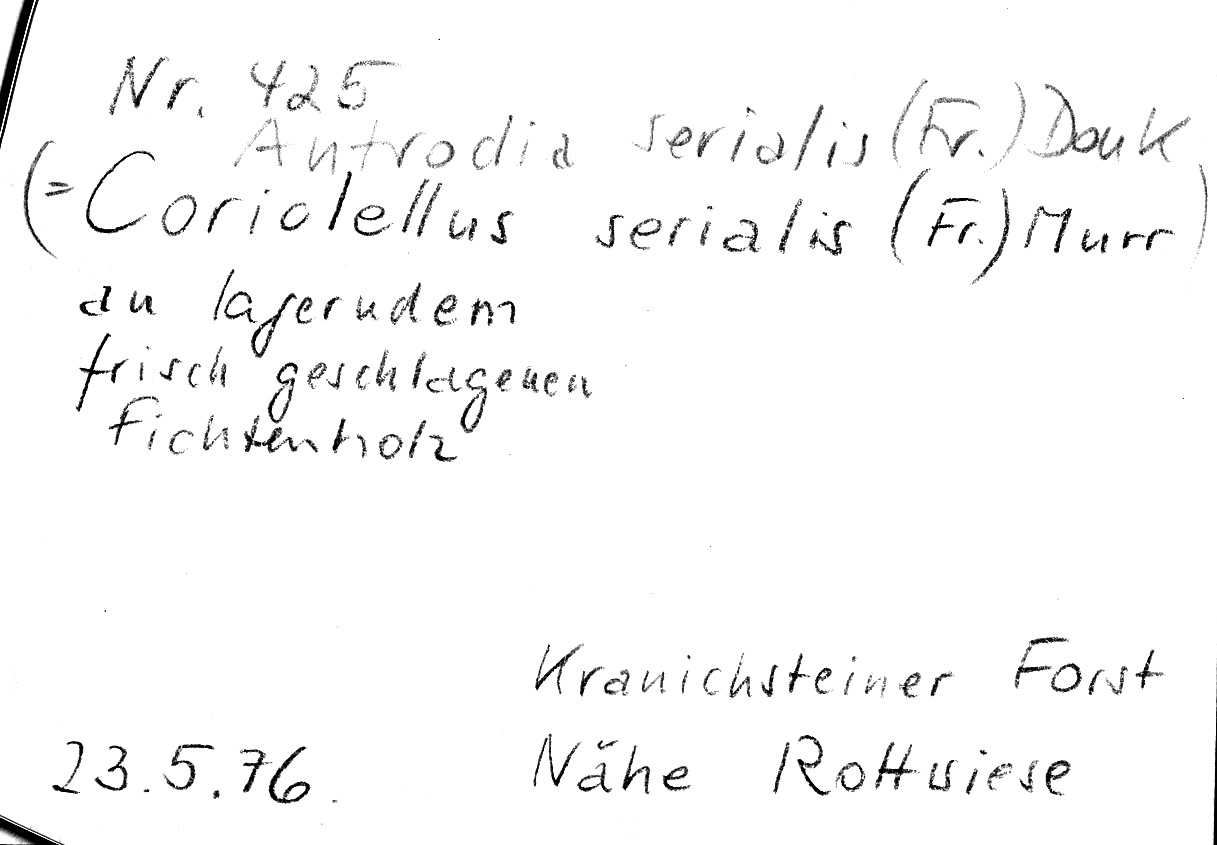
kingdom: Fungi
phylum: Basidiomycota
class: Agaricomycetes
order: Polyporales
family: Fomitopsidaceae
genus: Neoantrodia
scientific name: Neoantrodia serialis
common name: Serried porecrust
